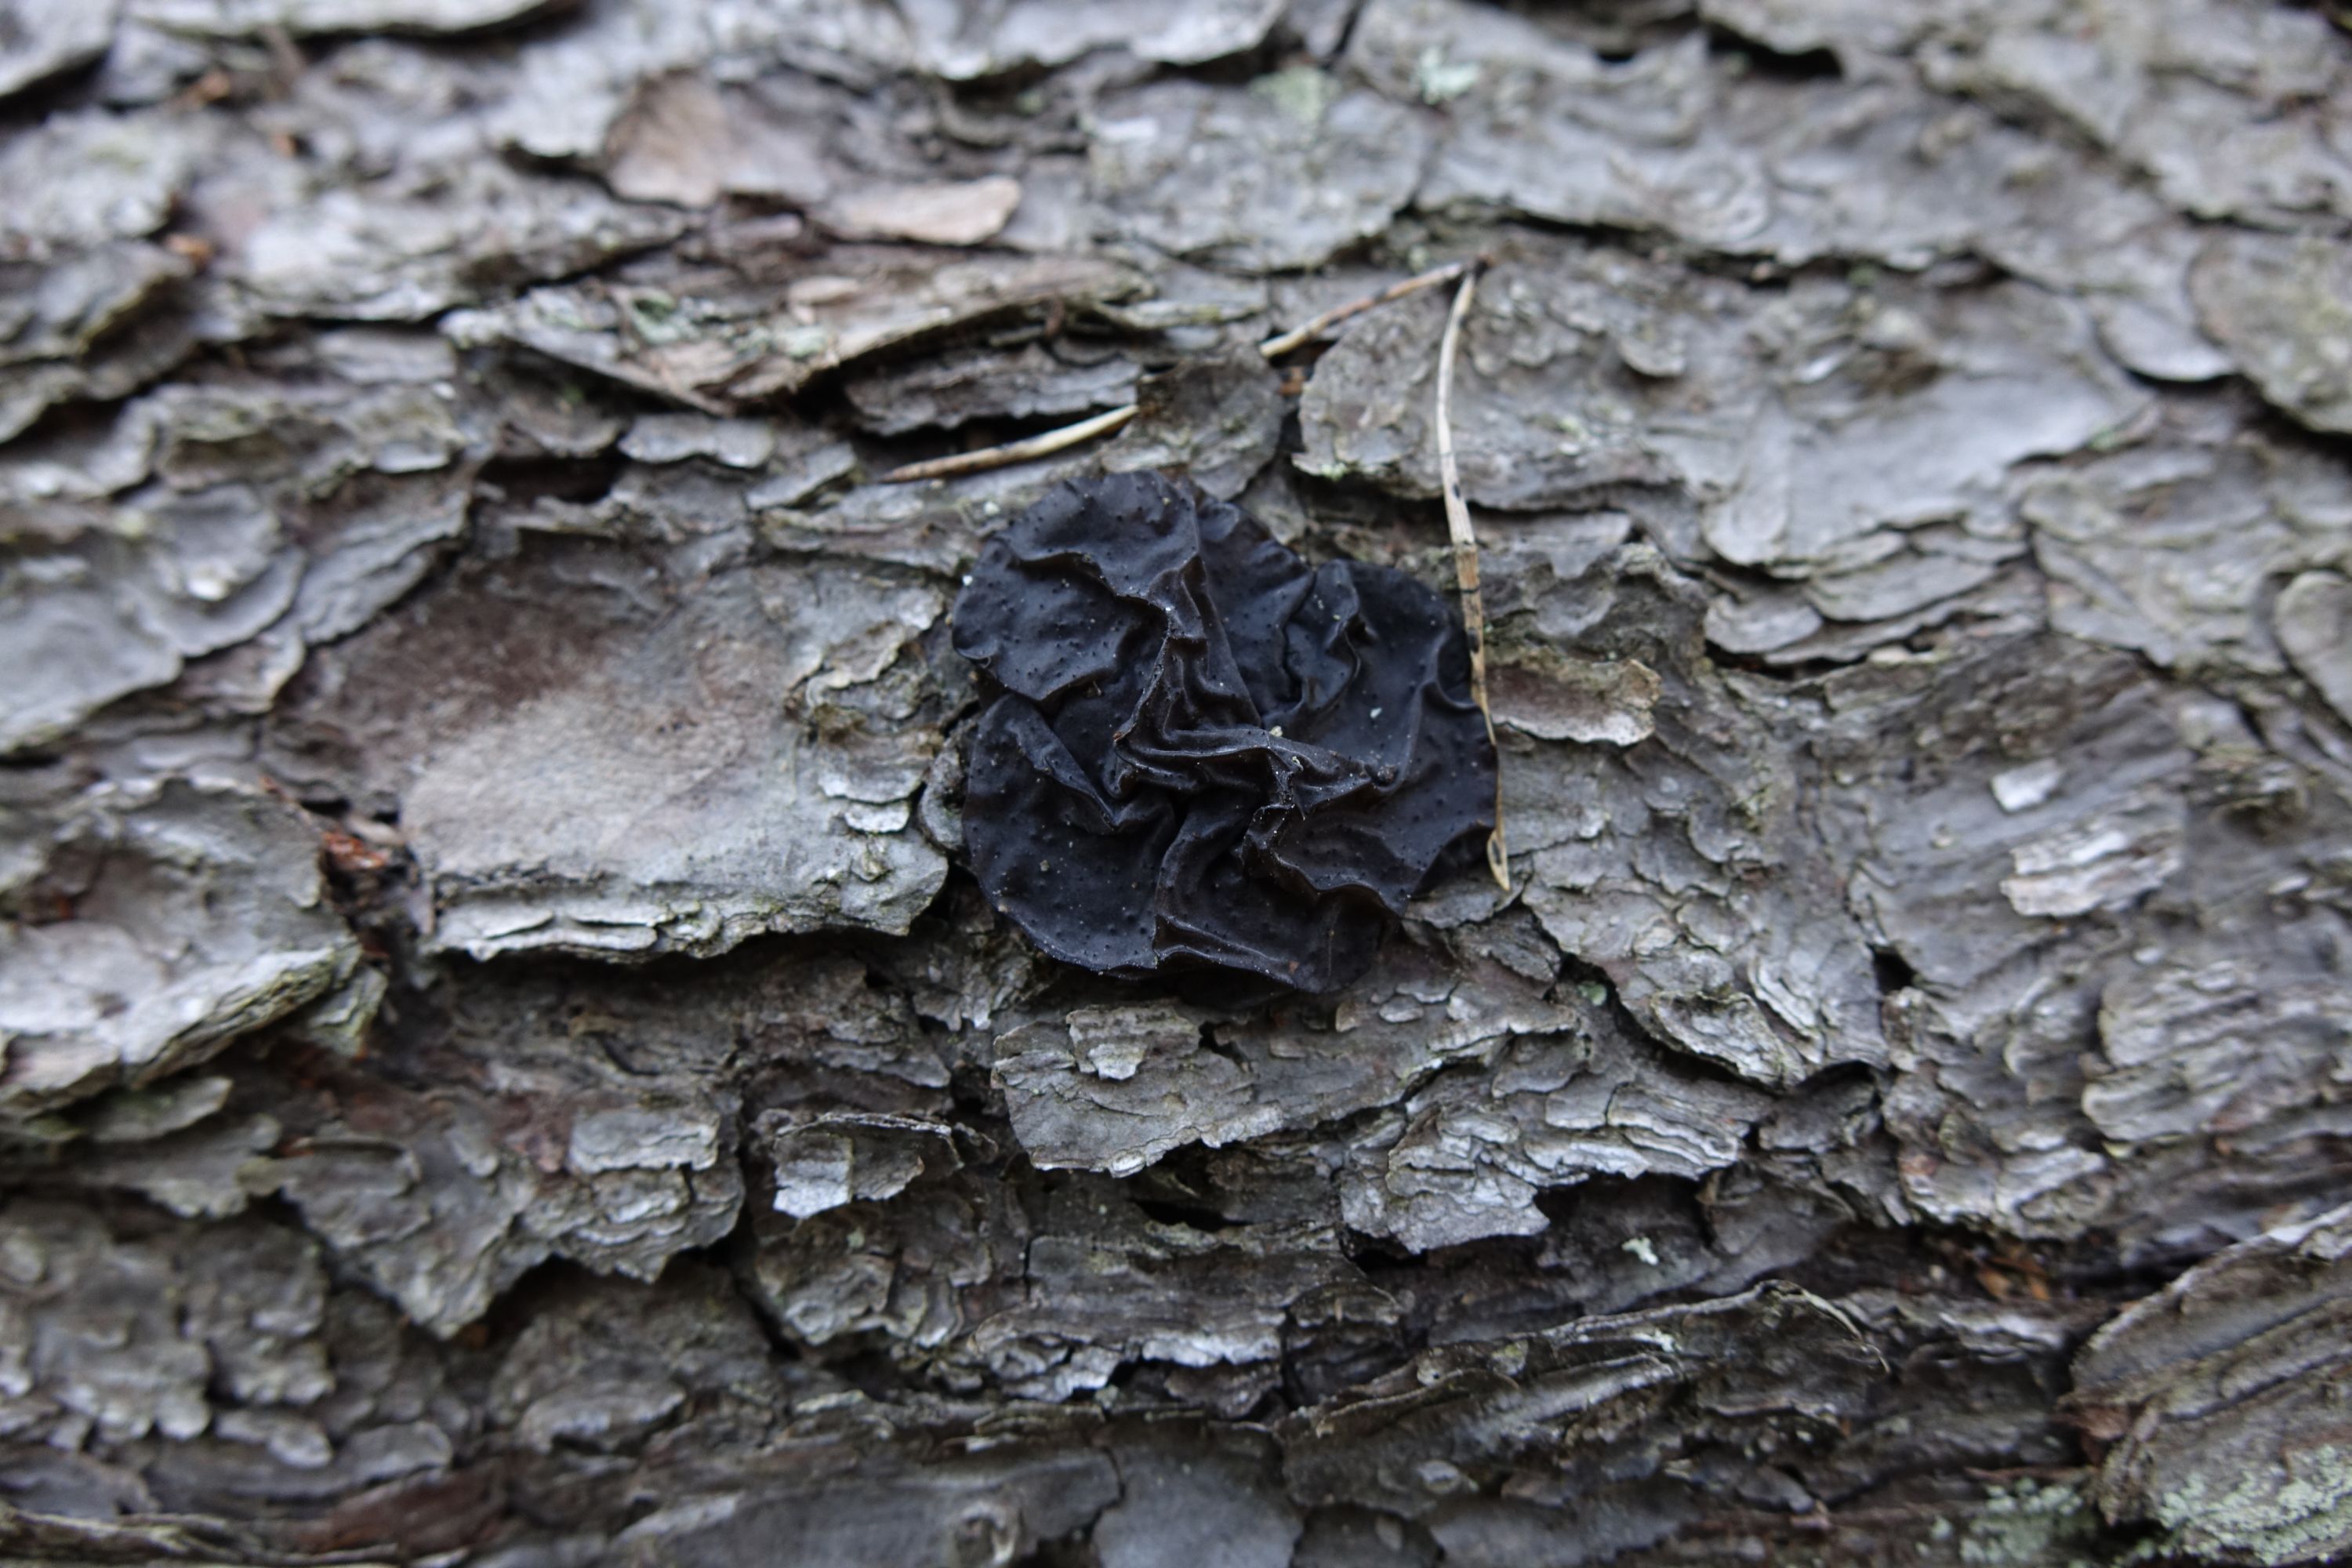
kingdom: Fungi
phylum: Basidiomycota
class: Agaricomycetes
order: Auriculariales
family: Auriculariaceae
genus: Exidia
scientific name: Exidia pithya
